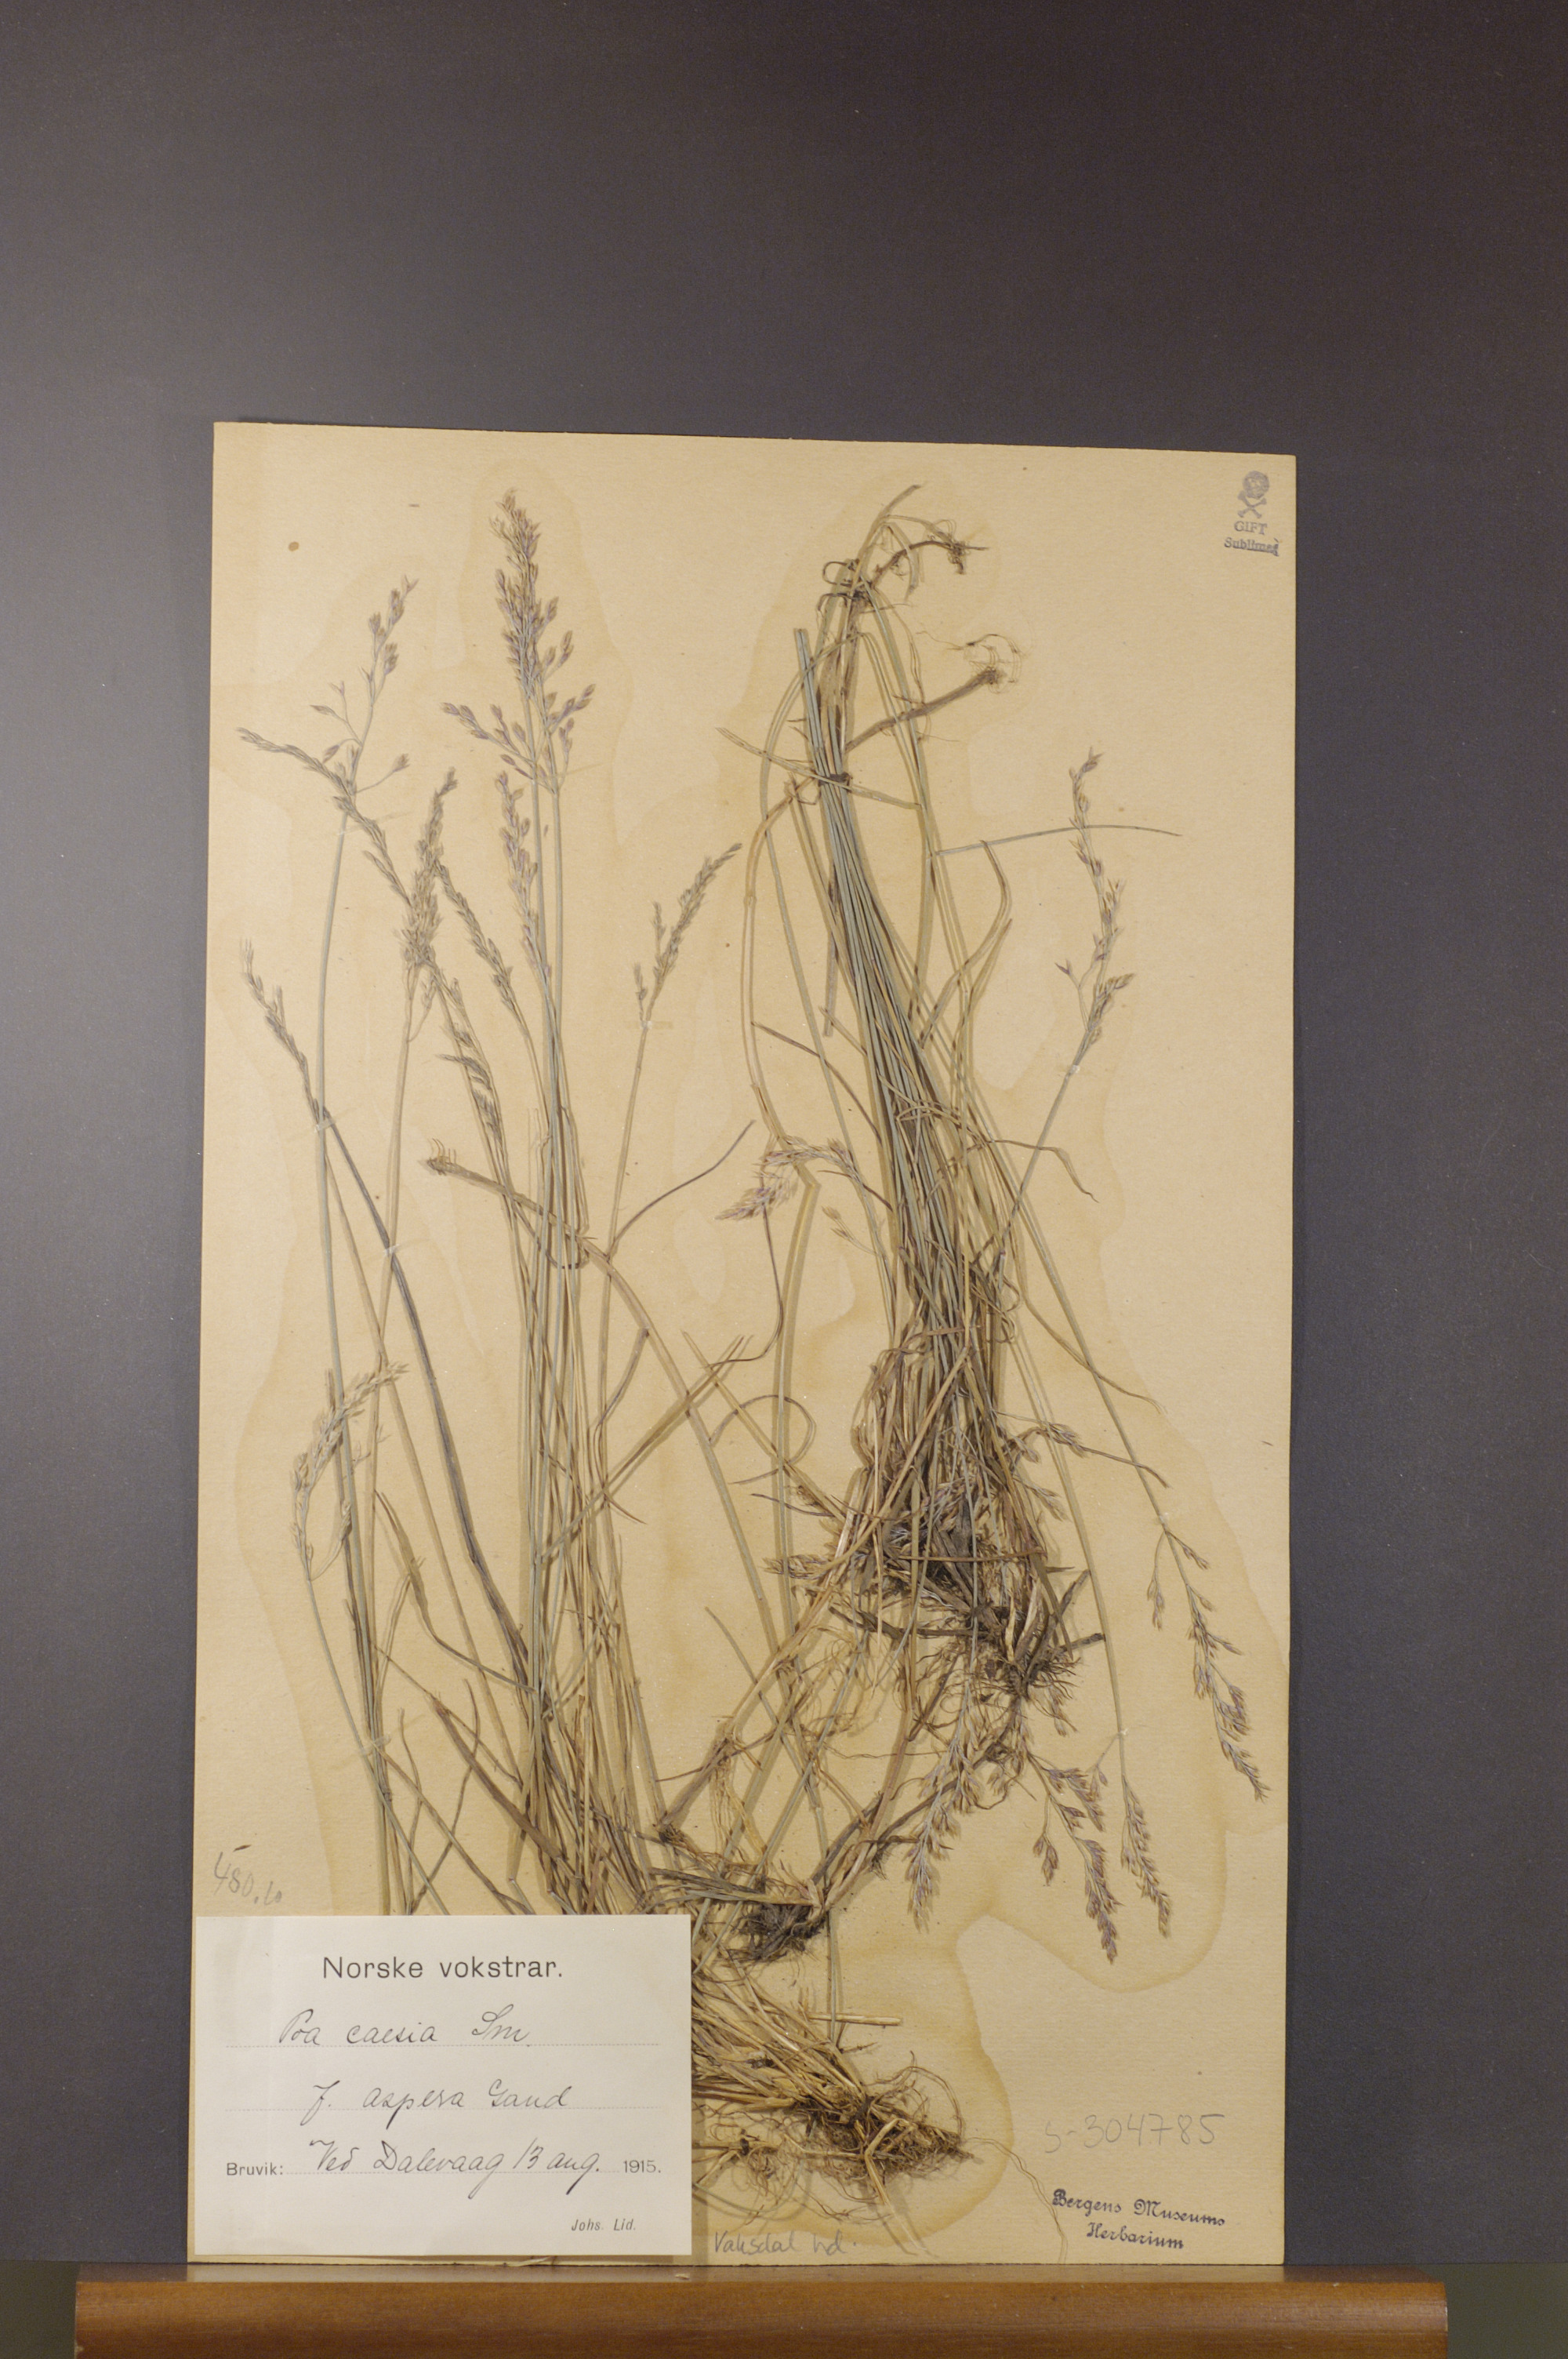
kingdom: Plantae
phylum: Tracheophyta
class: Liliopsida
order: Poales
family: Poaceae
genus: Poa
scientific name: Poa glauca
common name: Glaucous bluegrass
